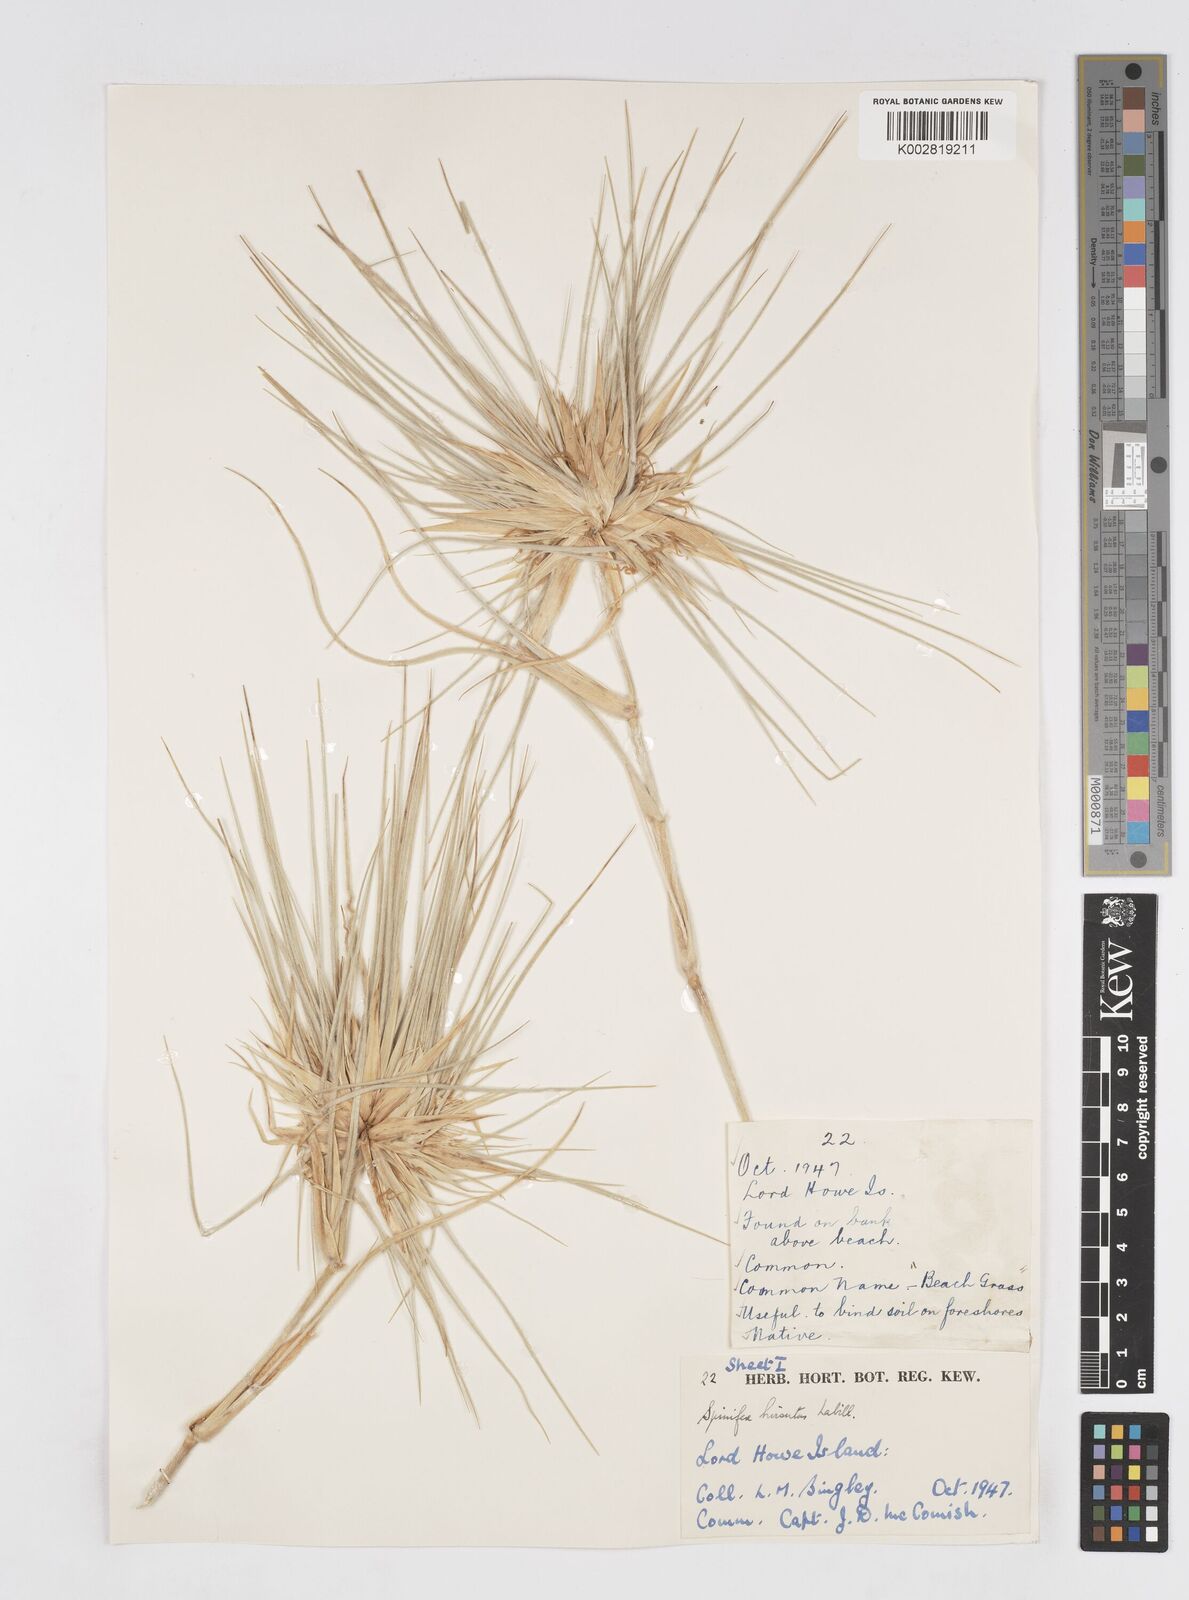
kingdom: Plantae
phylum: Tracheophyta
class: Liliopsida
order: Poales
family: Poaceae
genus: Spinifex
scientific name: Spinifex hirsutus
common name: Hairy spinifex
